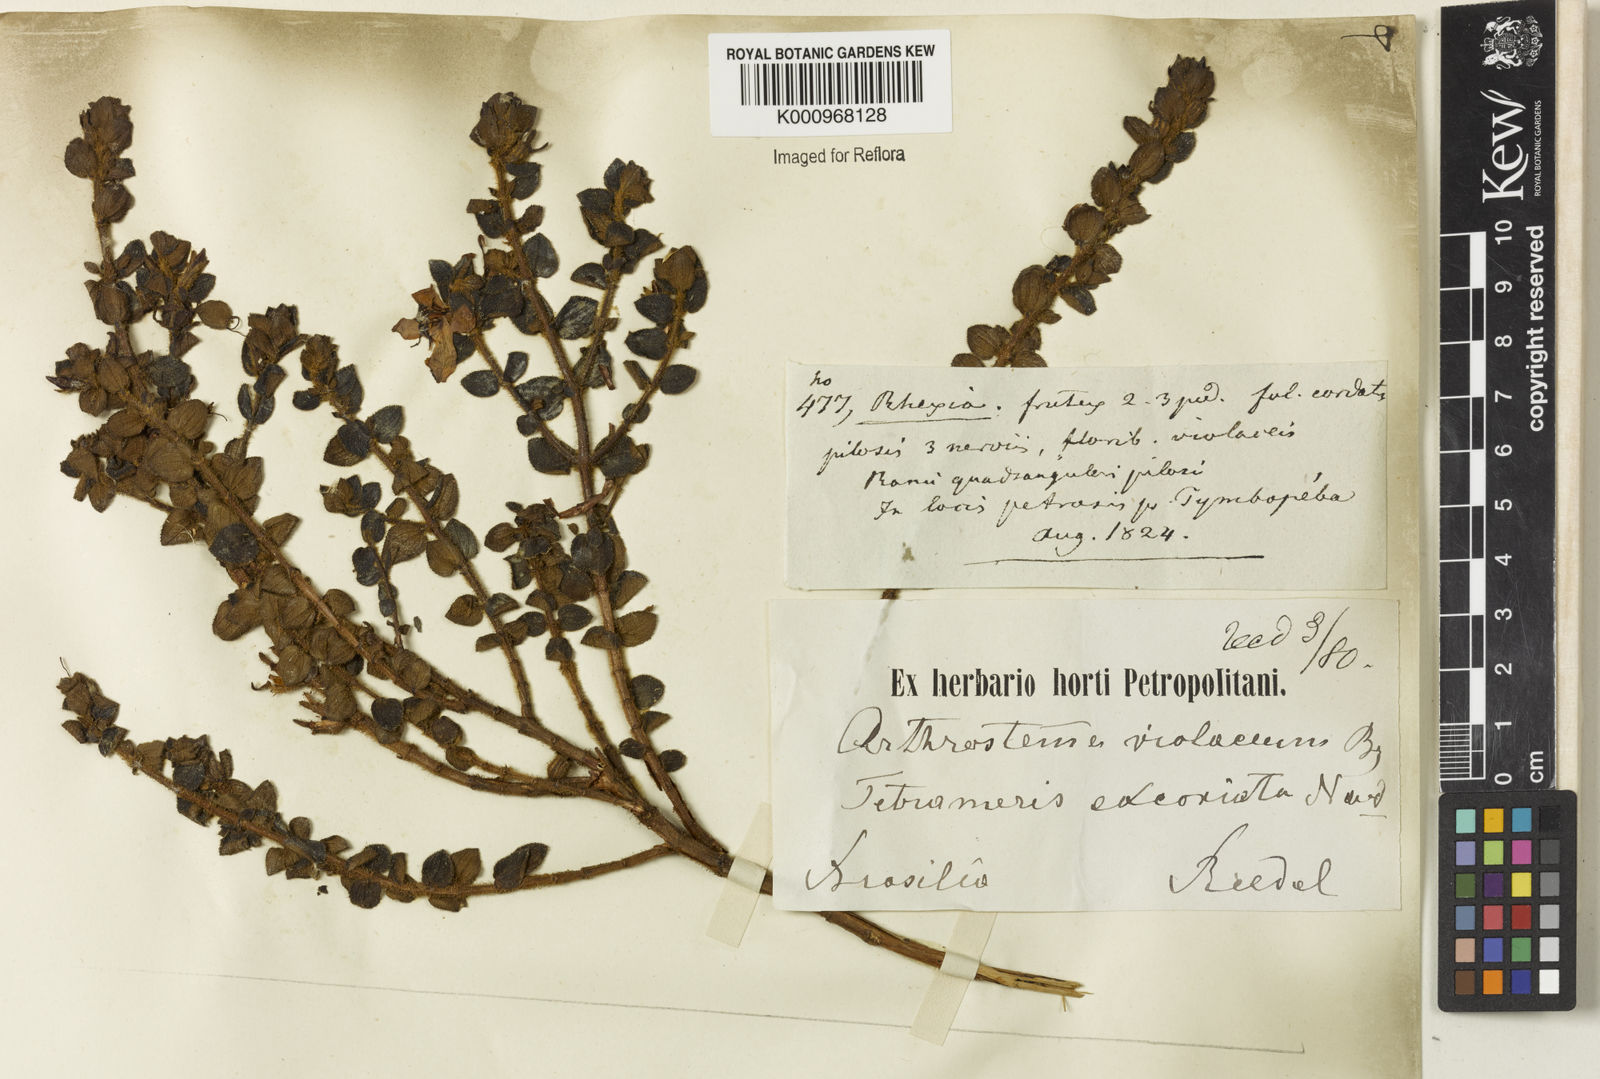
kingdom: Plantae
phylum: Tracheophyta
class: Magnoliopsida
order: Myrtales
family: Melastomataceae
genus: Fritzschia
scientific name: Fritzschia sessilis
